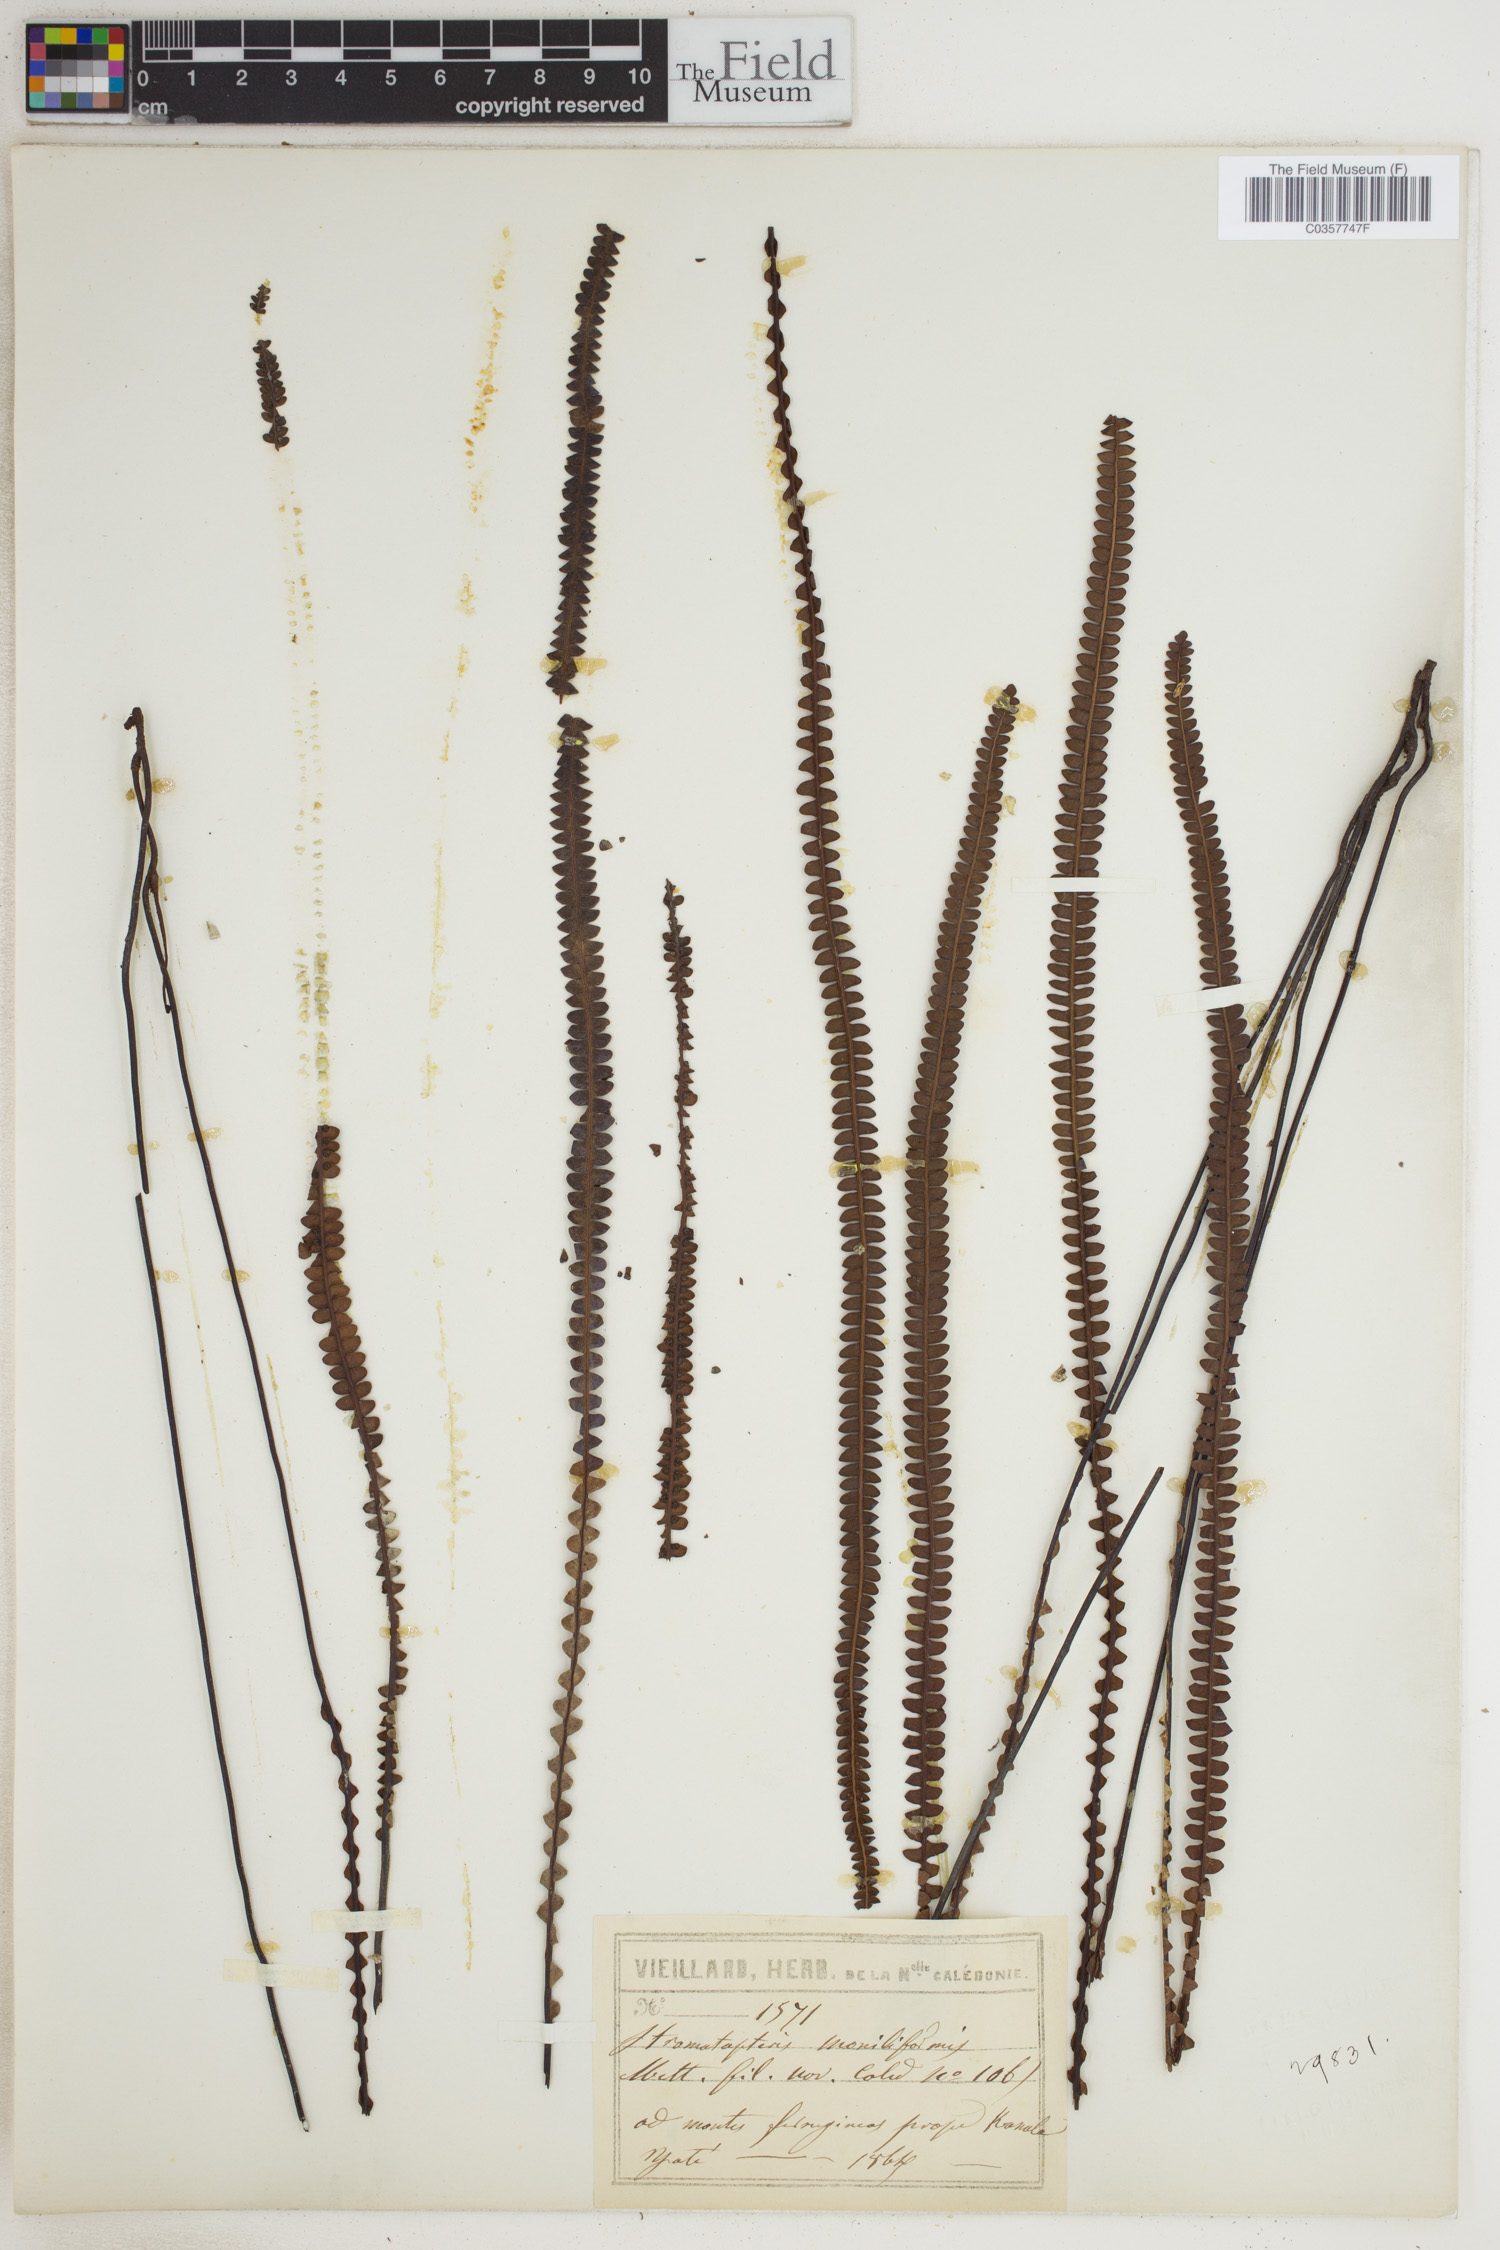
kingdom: Plantae
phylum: Tracheophyta
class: Polypodiopsida
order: Gleicheniales
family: Gleicheniaceae
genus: Stromatopteris
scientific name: Stromatopteris moniliformis
